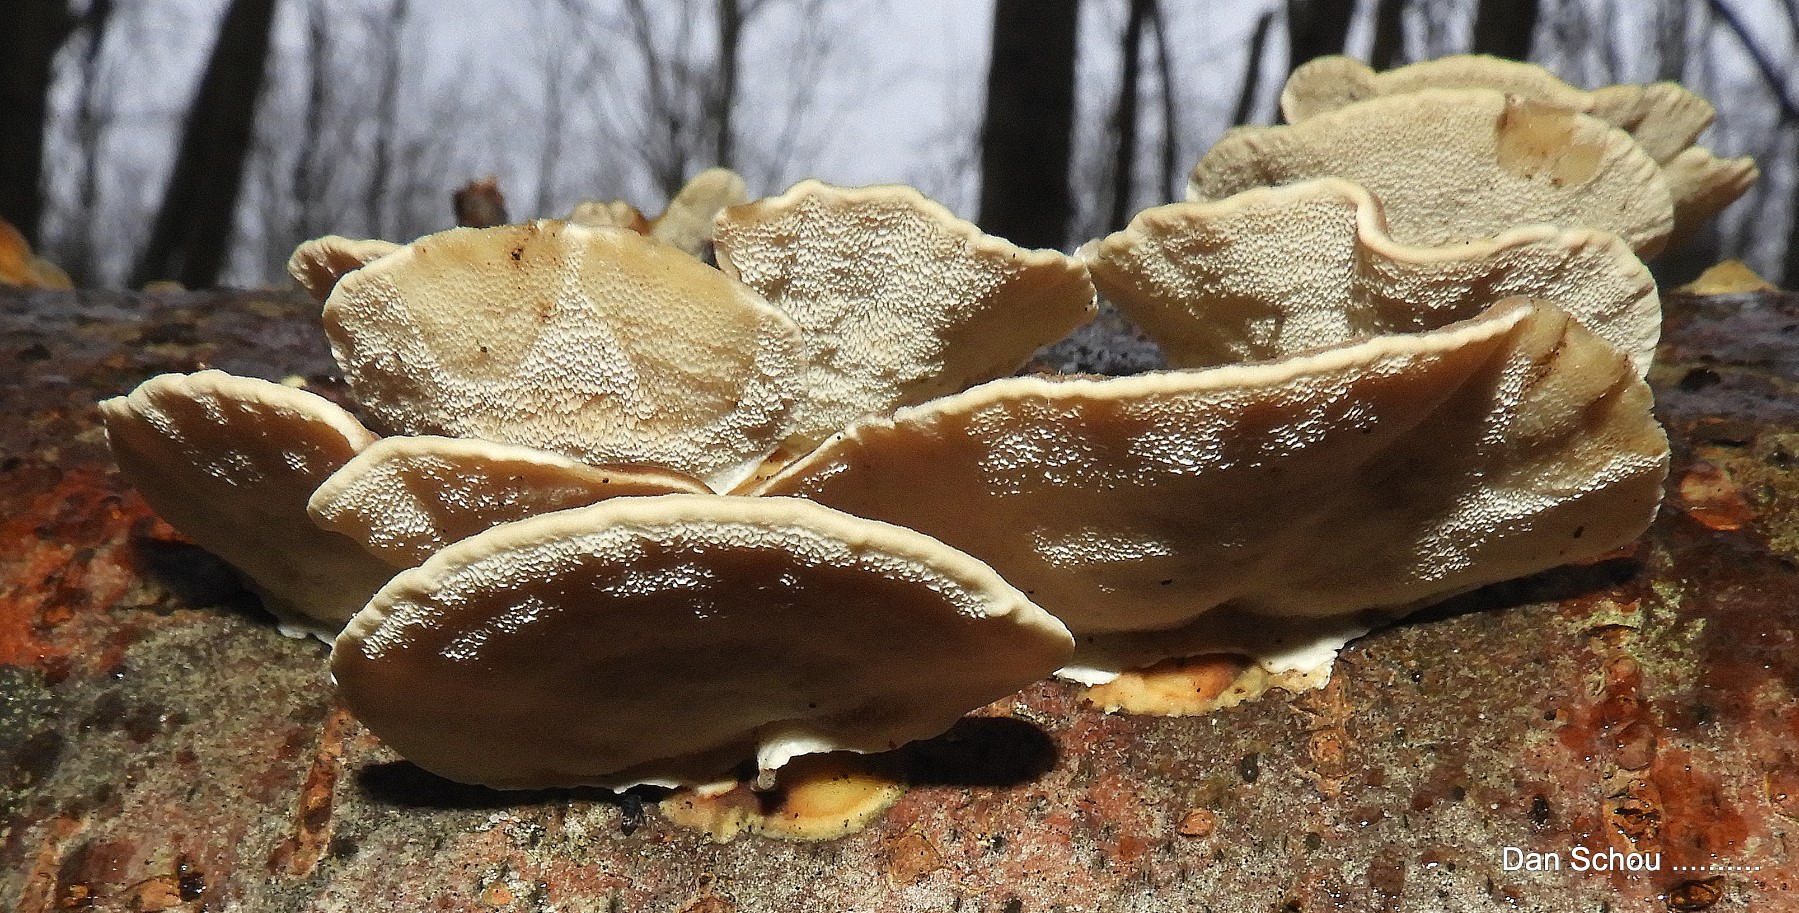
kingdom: Fungi
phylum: Basidiomycota
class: Agaricomycetes
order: Polyporales
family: Polyporaceae
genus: Trametes
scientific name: Trametes versicolor
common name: broget læderporesvamp
